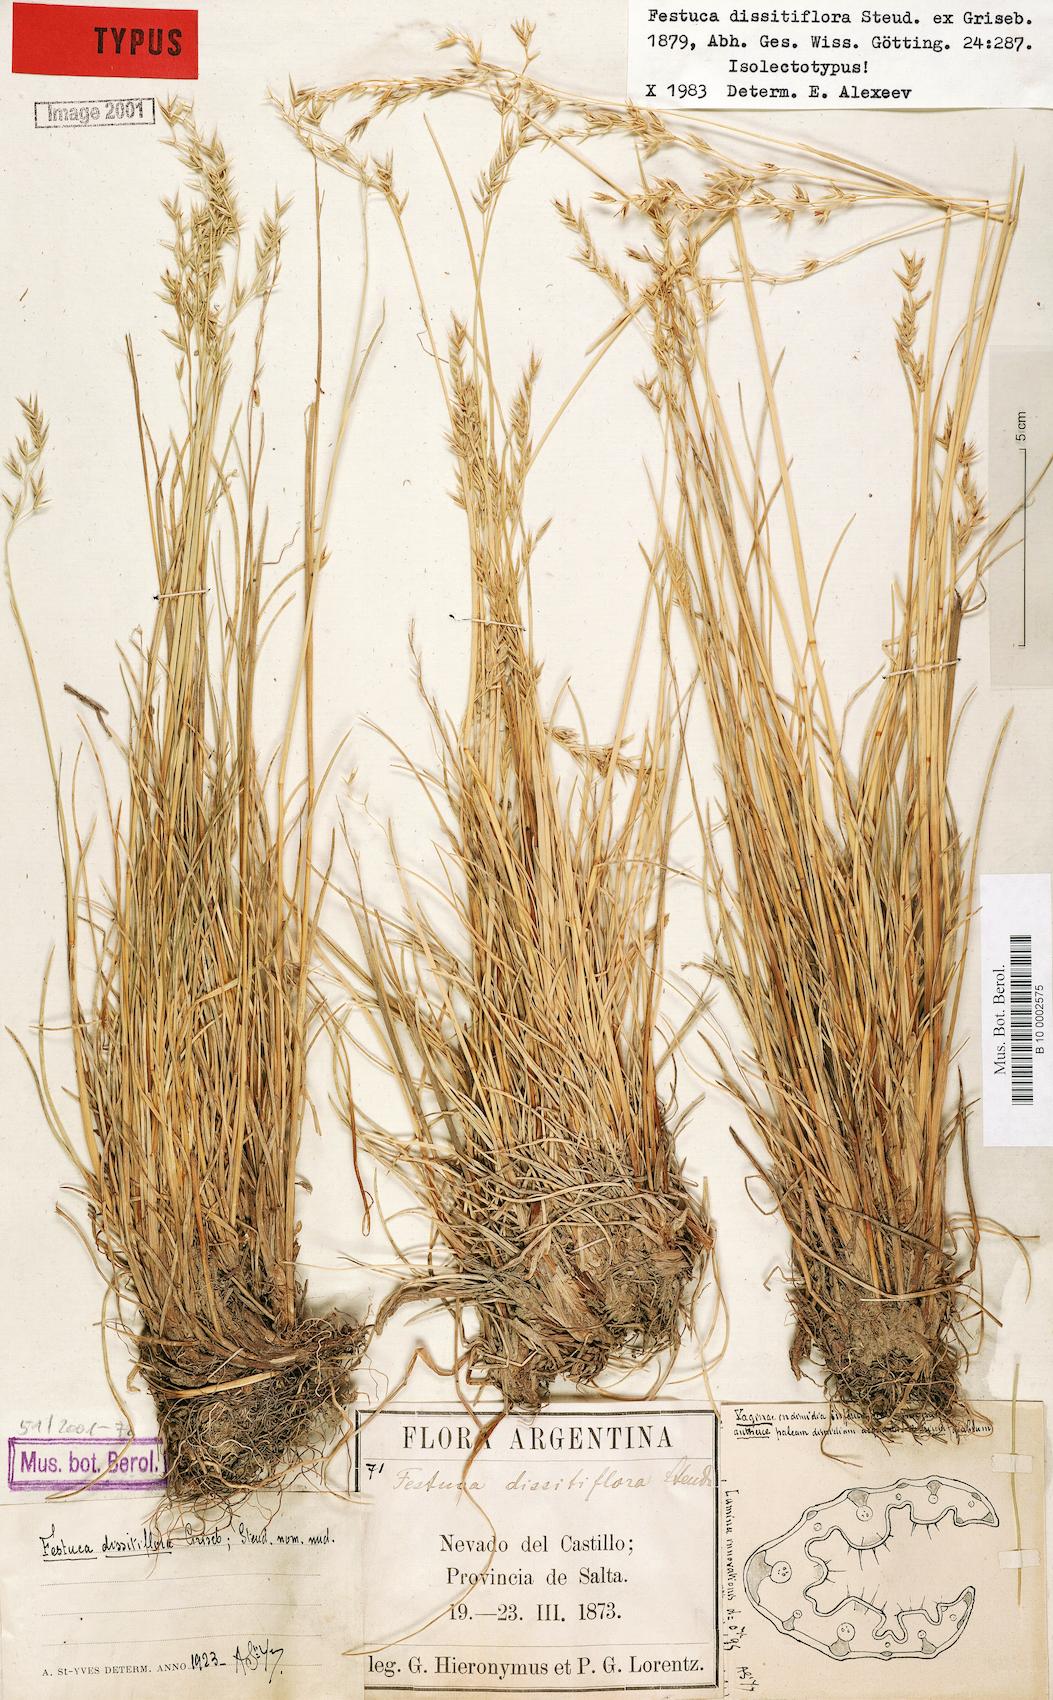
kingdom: Plantae
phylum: Tracheophyta
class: Liliopsida
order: Poales
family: Poaceae
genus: Festuca
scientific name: Festuca dissitiflora
